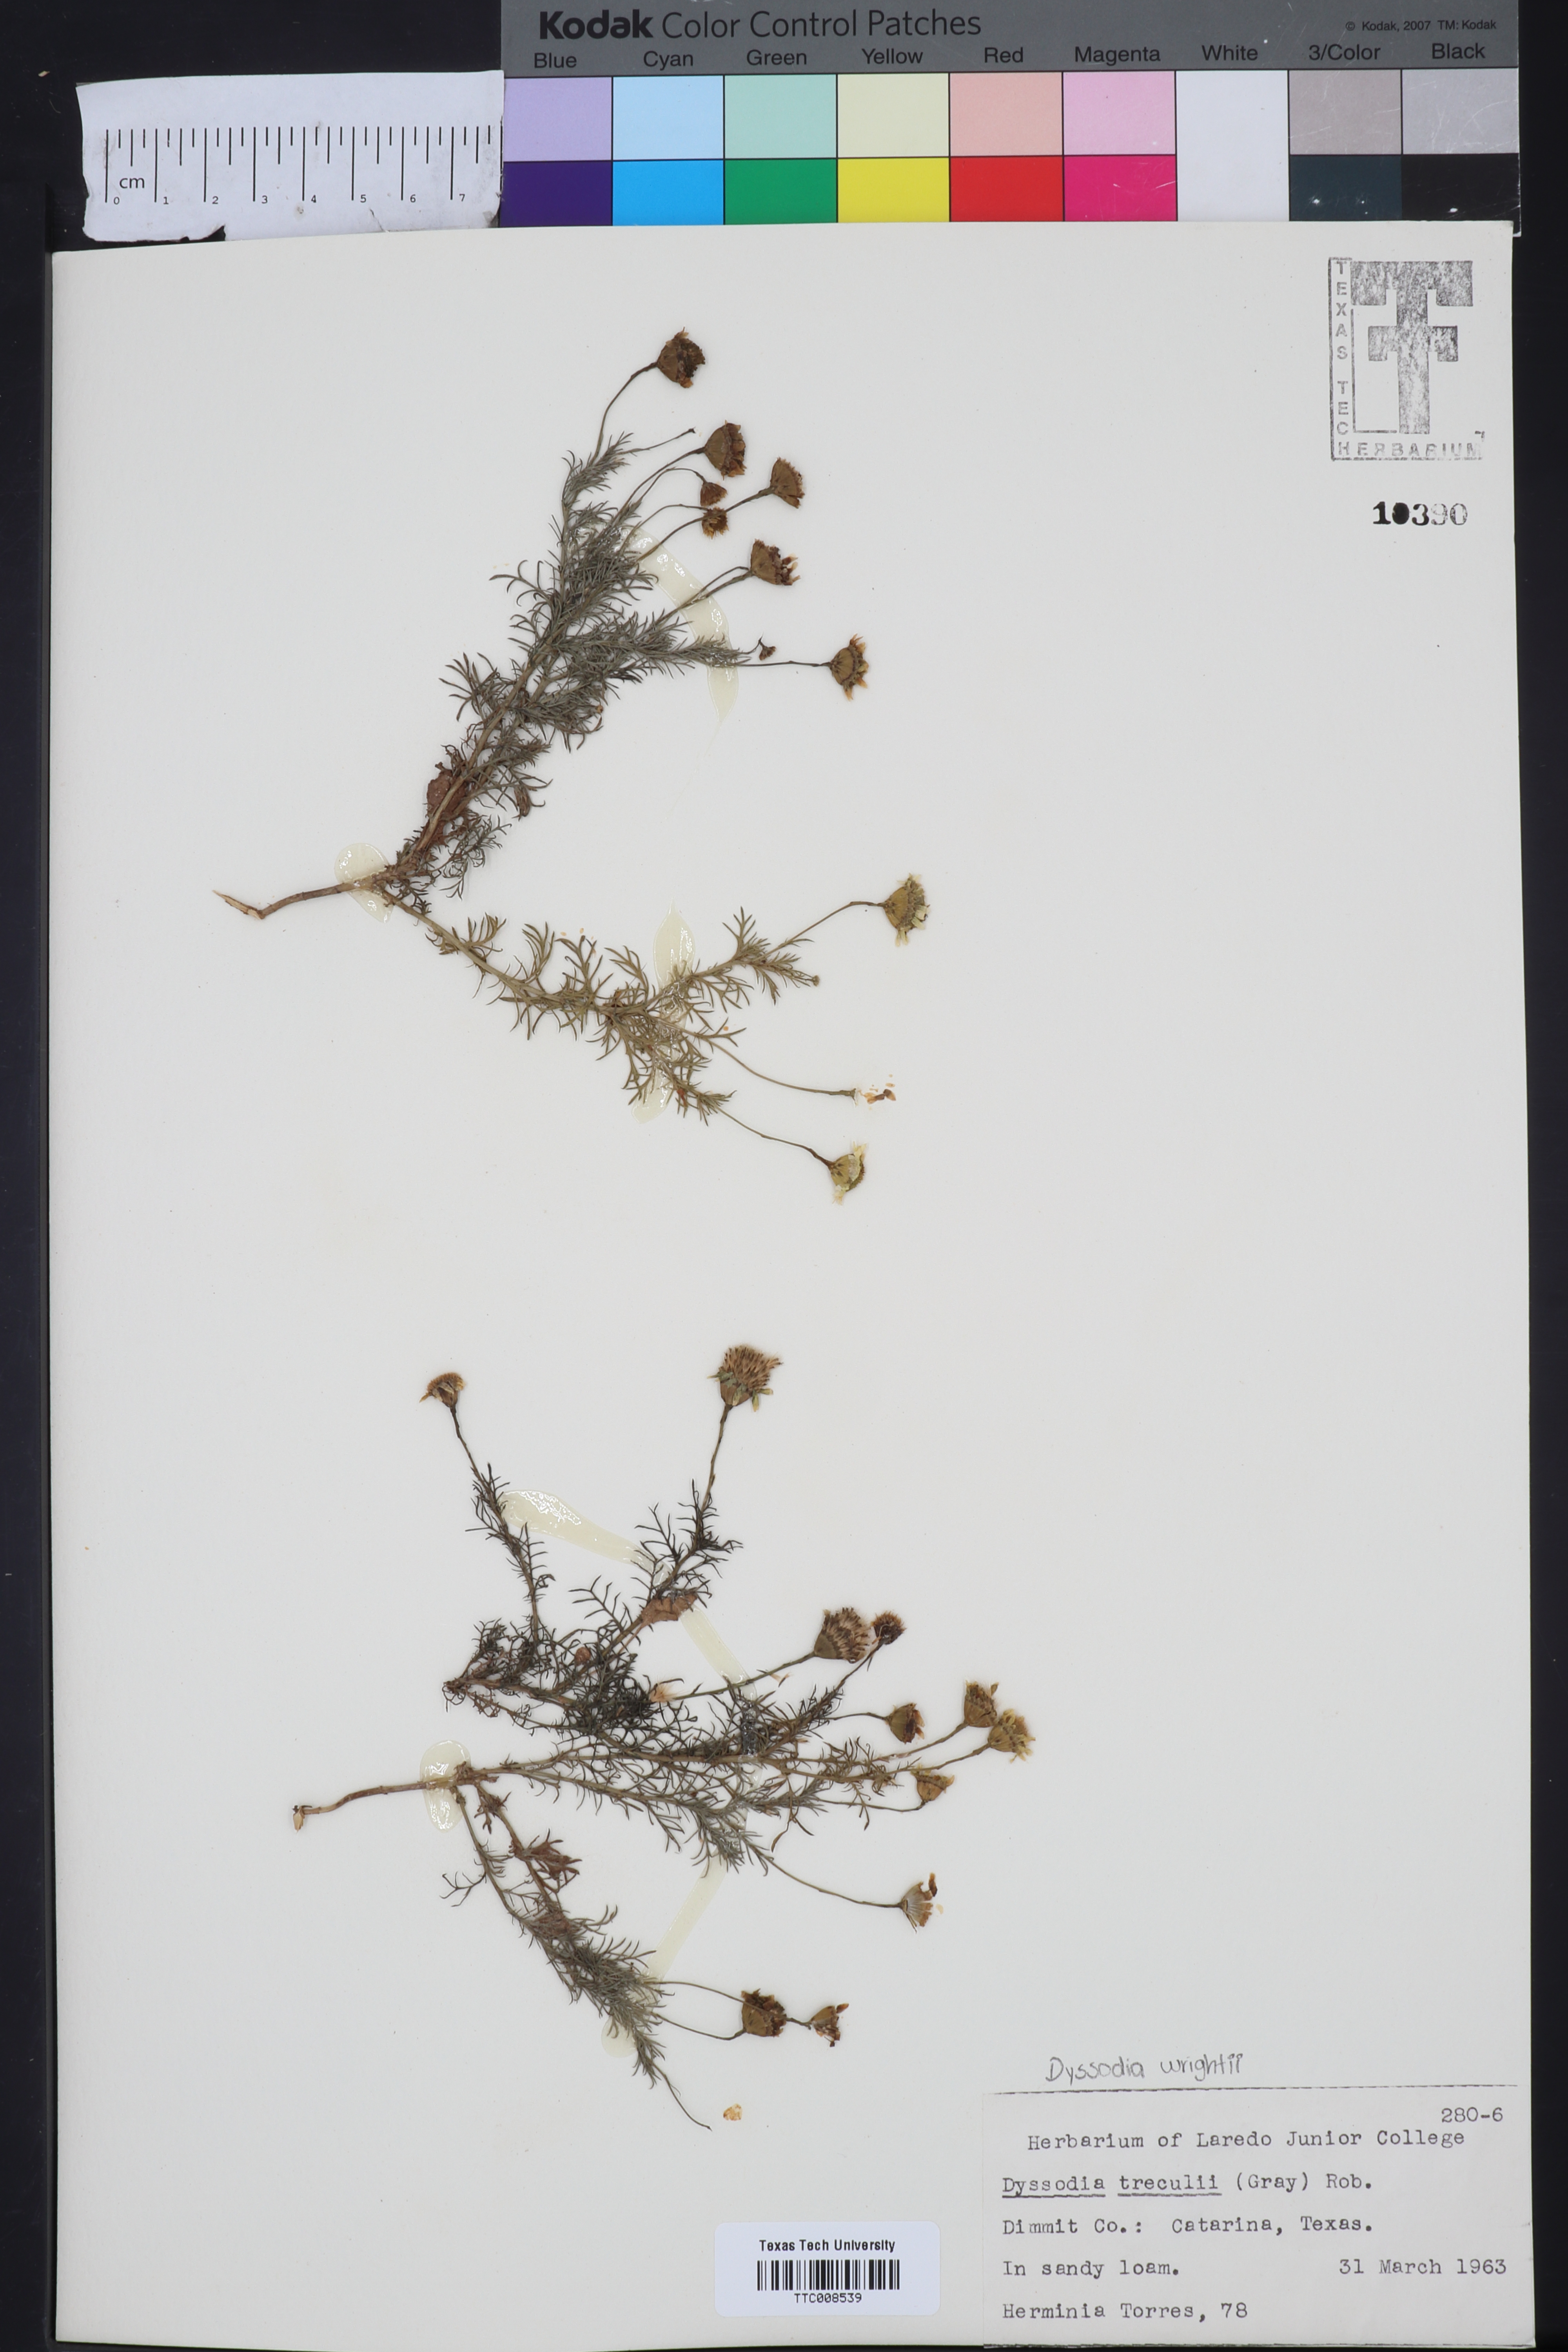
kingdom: Plantae
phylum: Tracheophyta
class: Magnoliopsida
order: Asterales
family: Asteraceae
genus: Thymophylla
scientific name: Thymophylla tenuiloba
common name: Dahlberg's daisy
